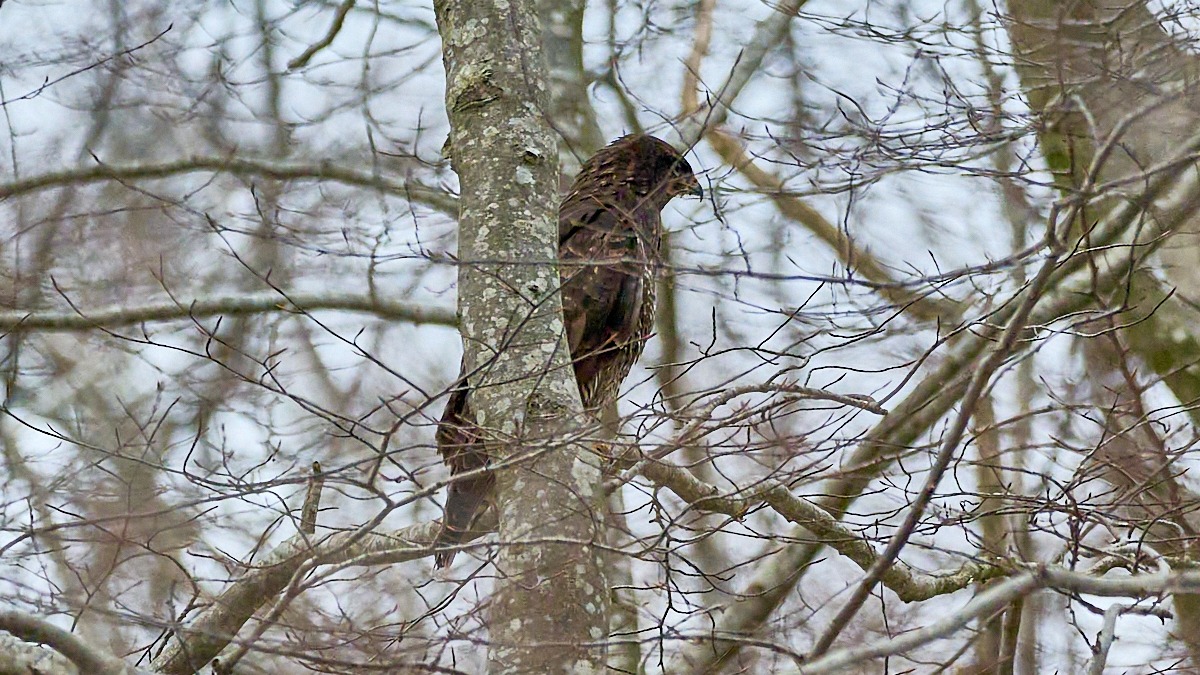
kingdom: Animalia
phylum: Chordata
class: Aves
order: Accipitriformes
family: Accipitridae
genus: Buteo
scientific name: Buteo buteo
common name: Musvåge
